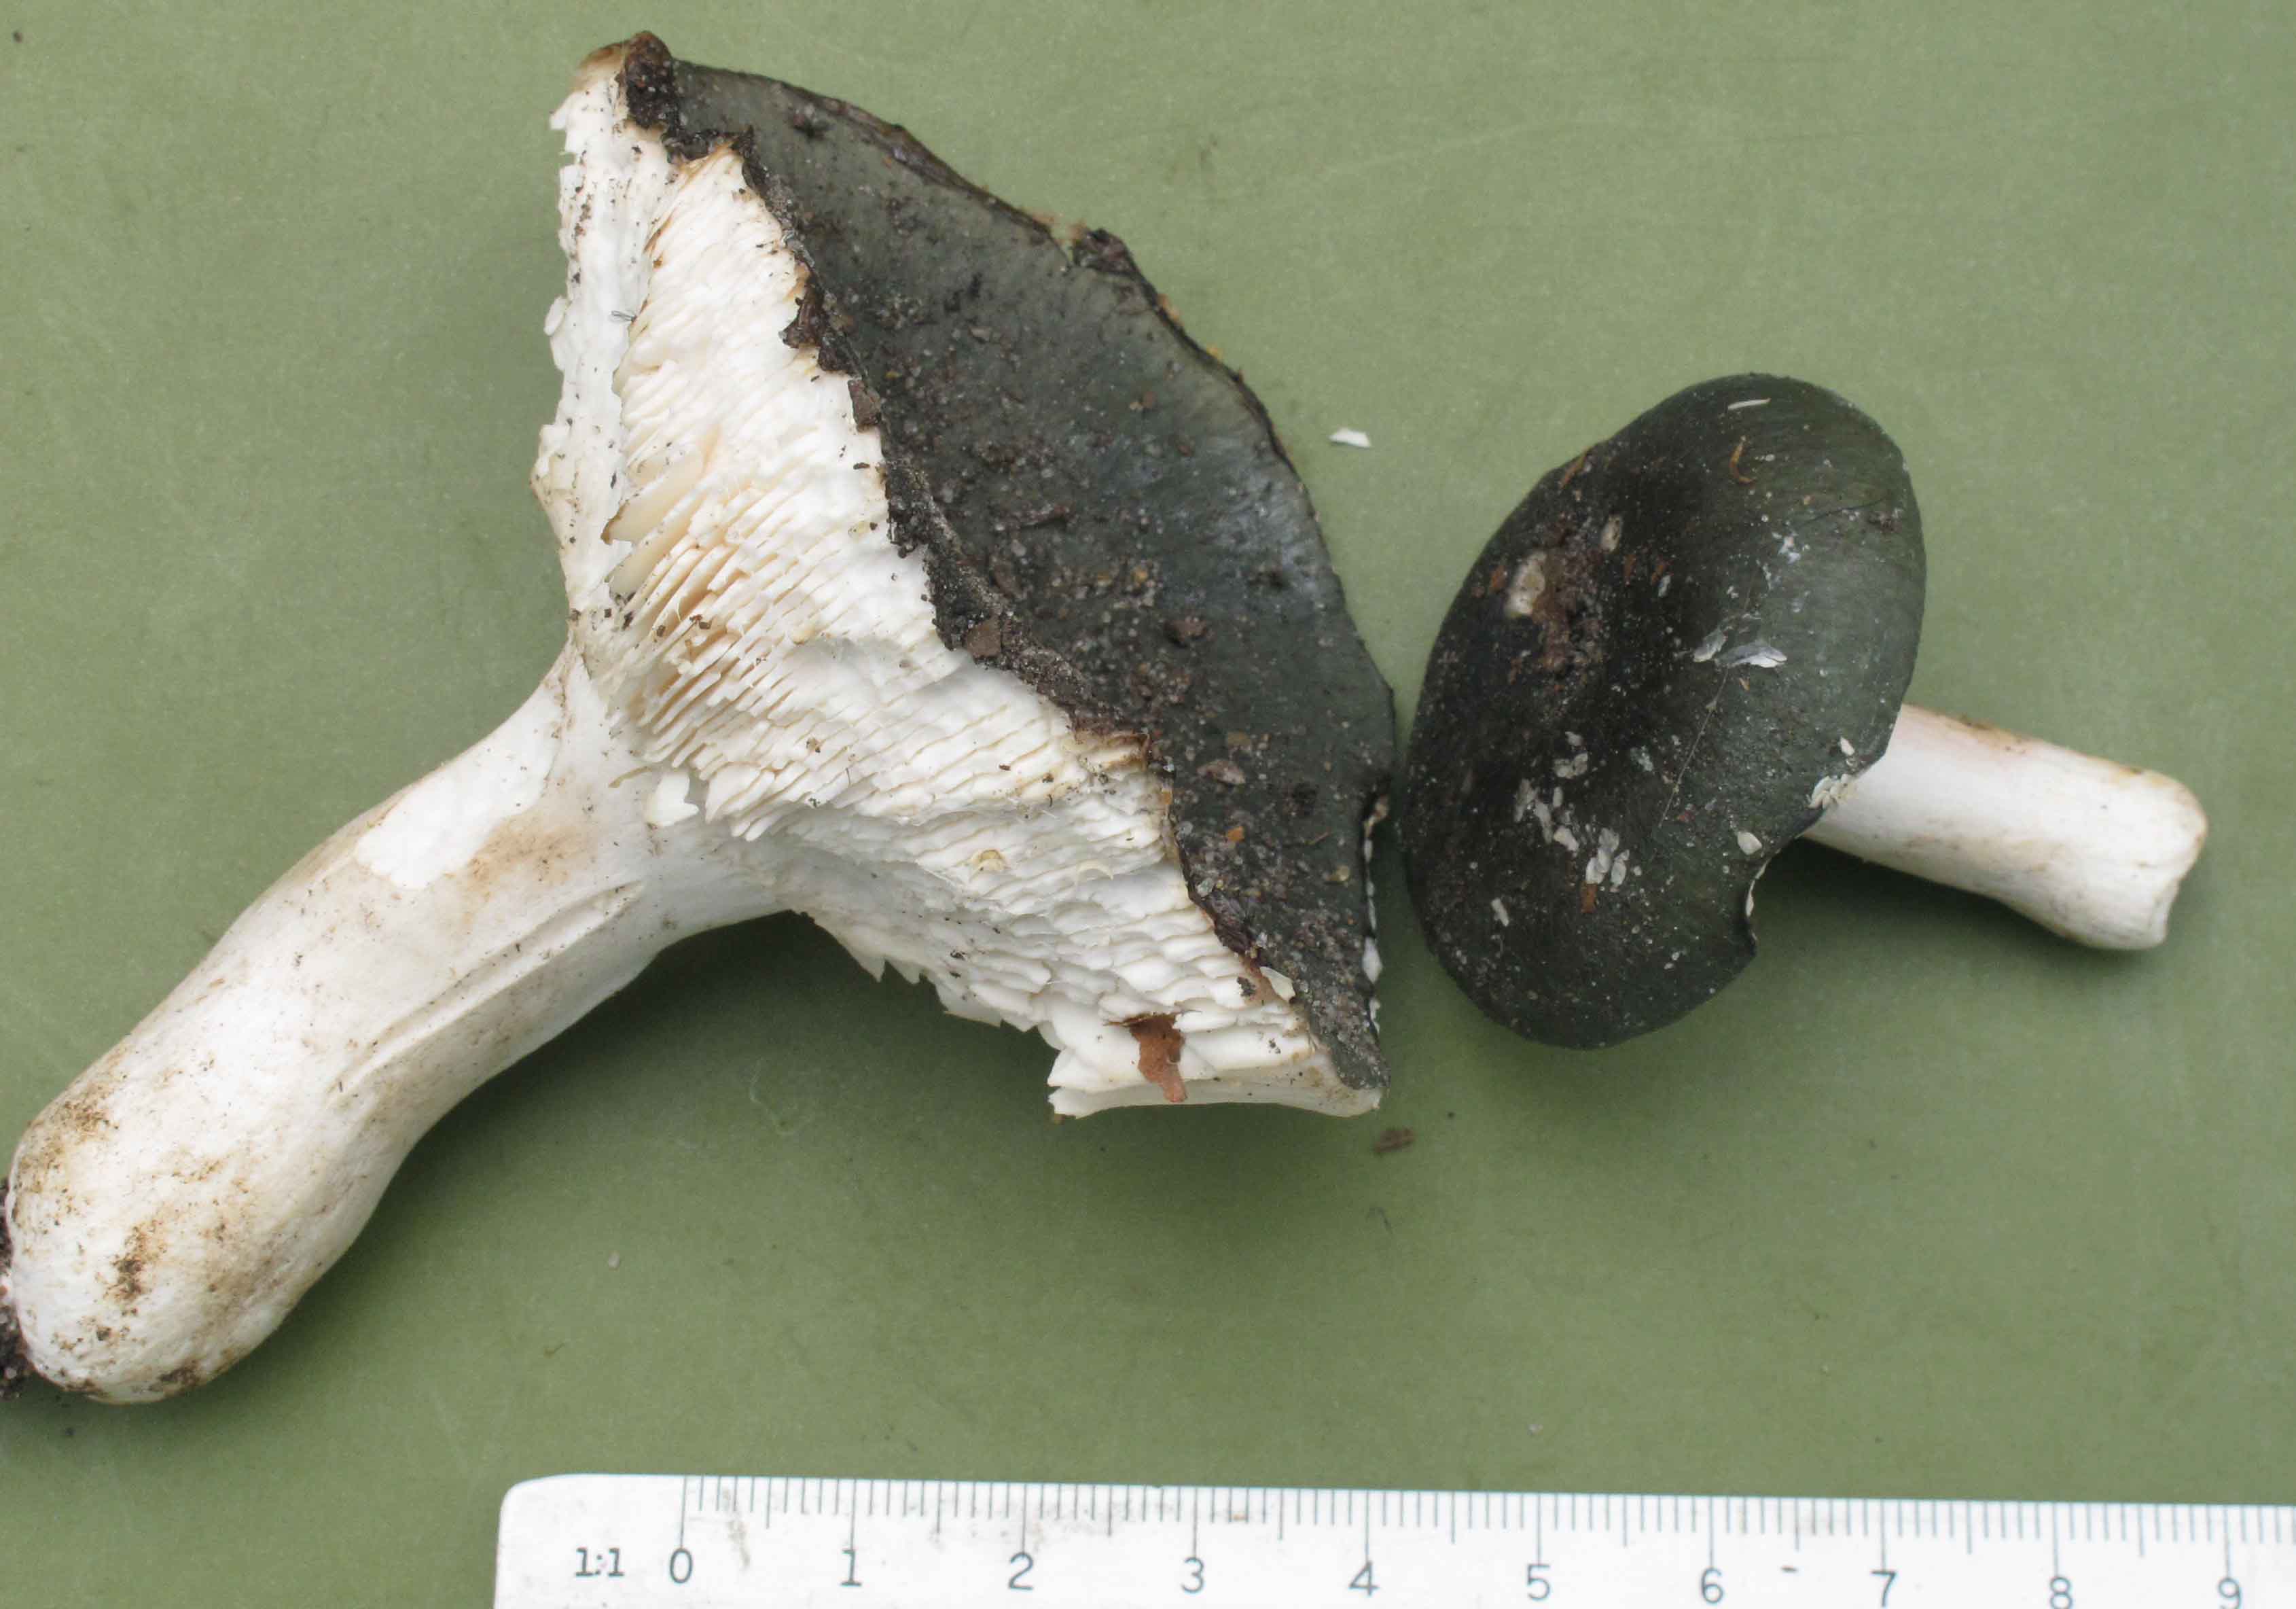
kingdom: Fungi
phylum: Basidiomycota
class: Agaricomycetes
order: Russulales
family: Russulaceae
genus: Russula
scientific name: Russula parazurea
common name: blågrå skørhat
